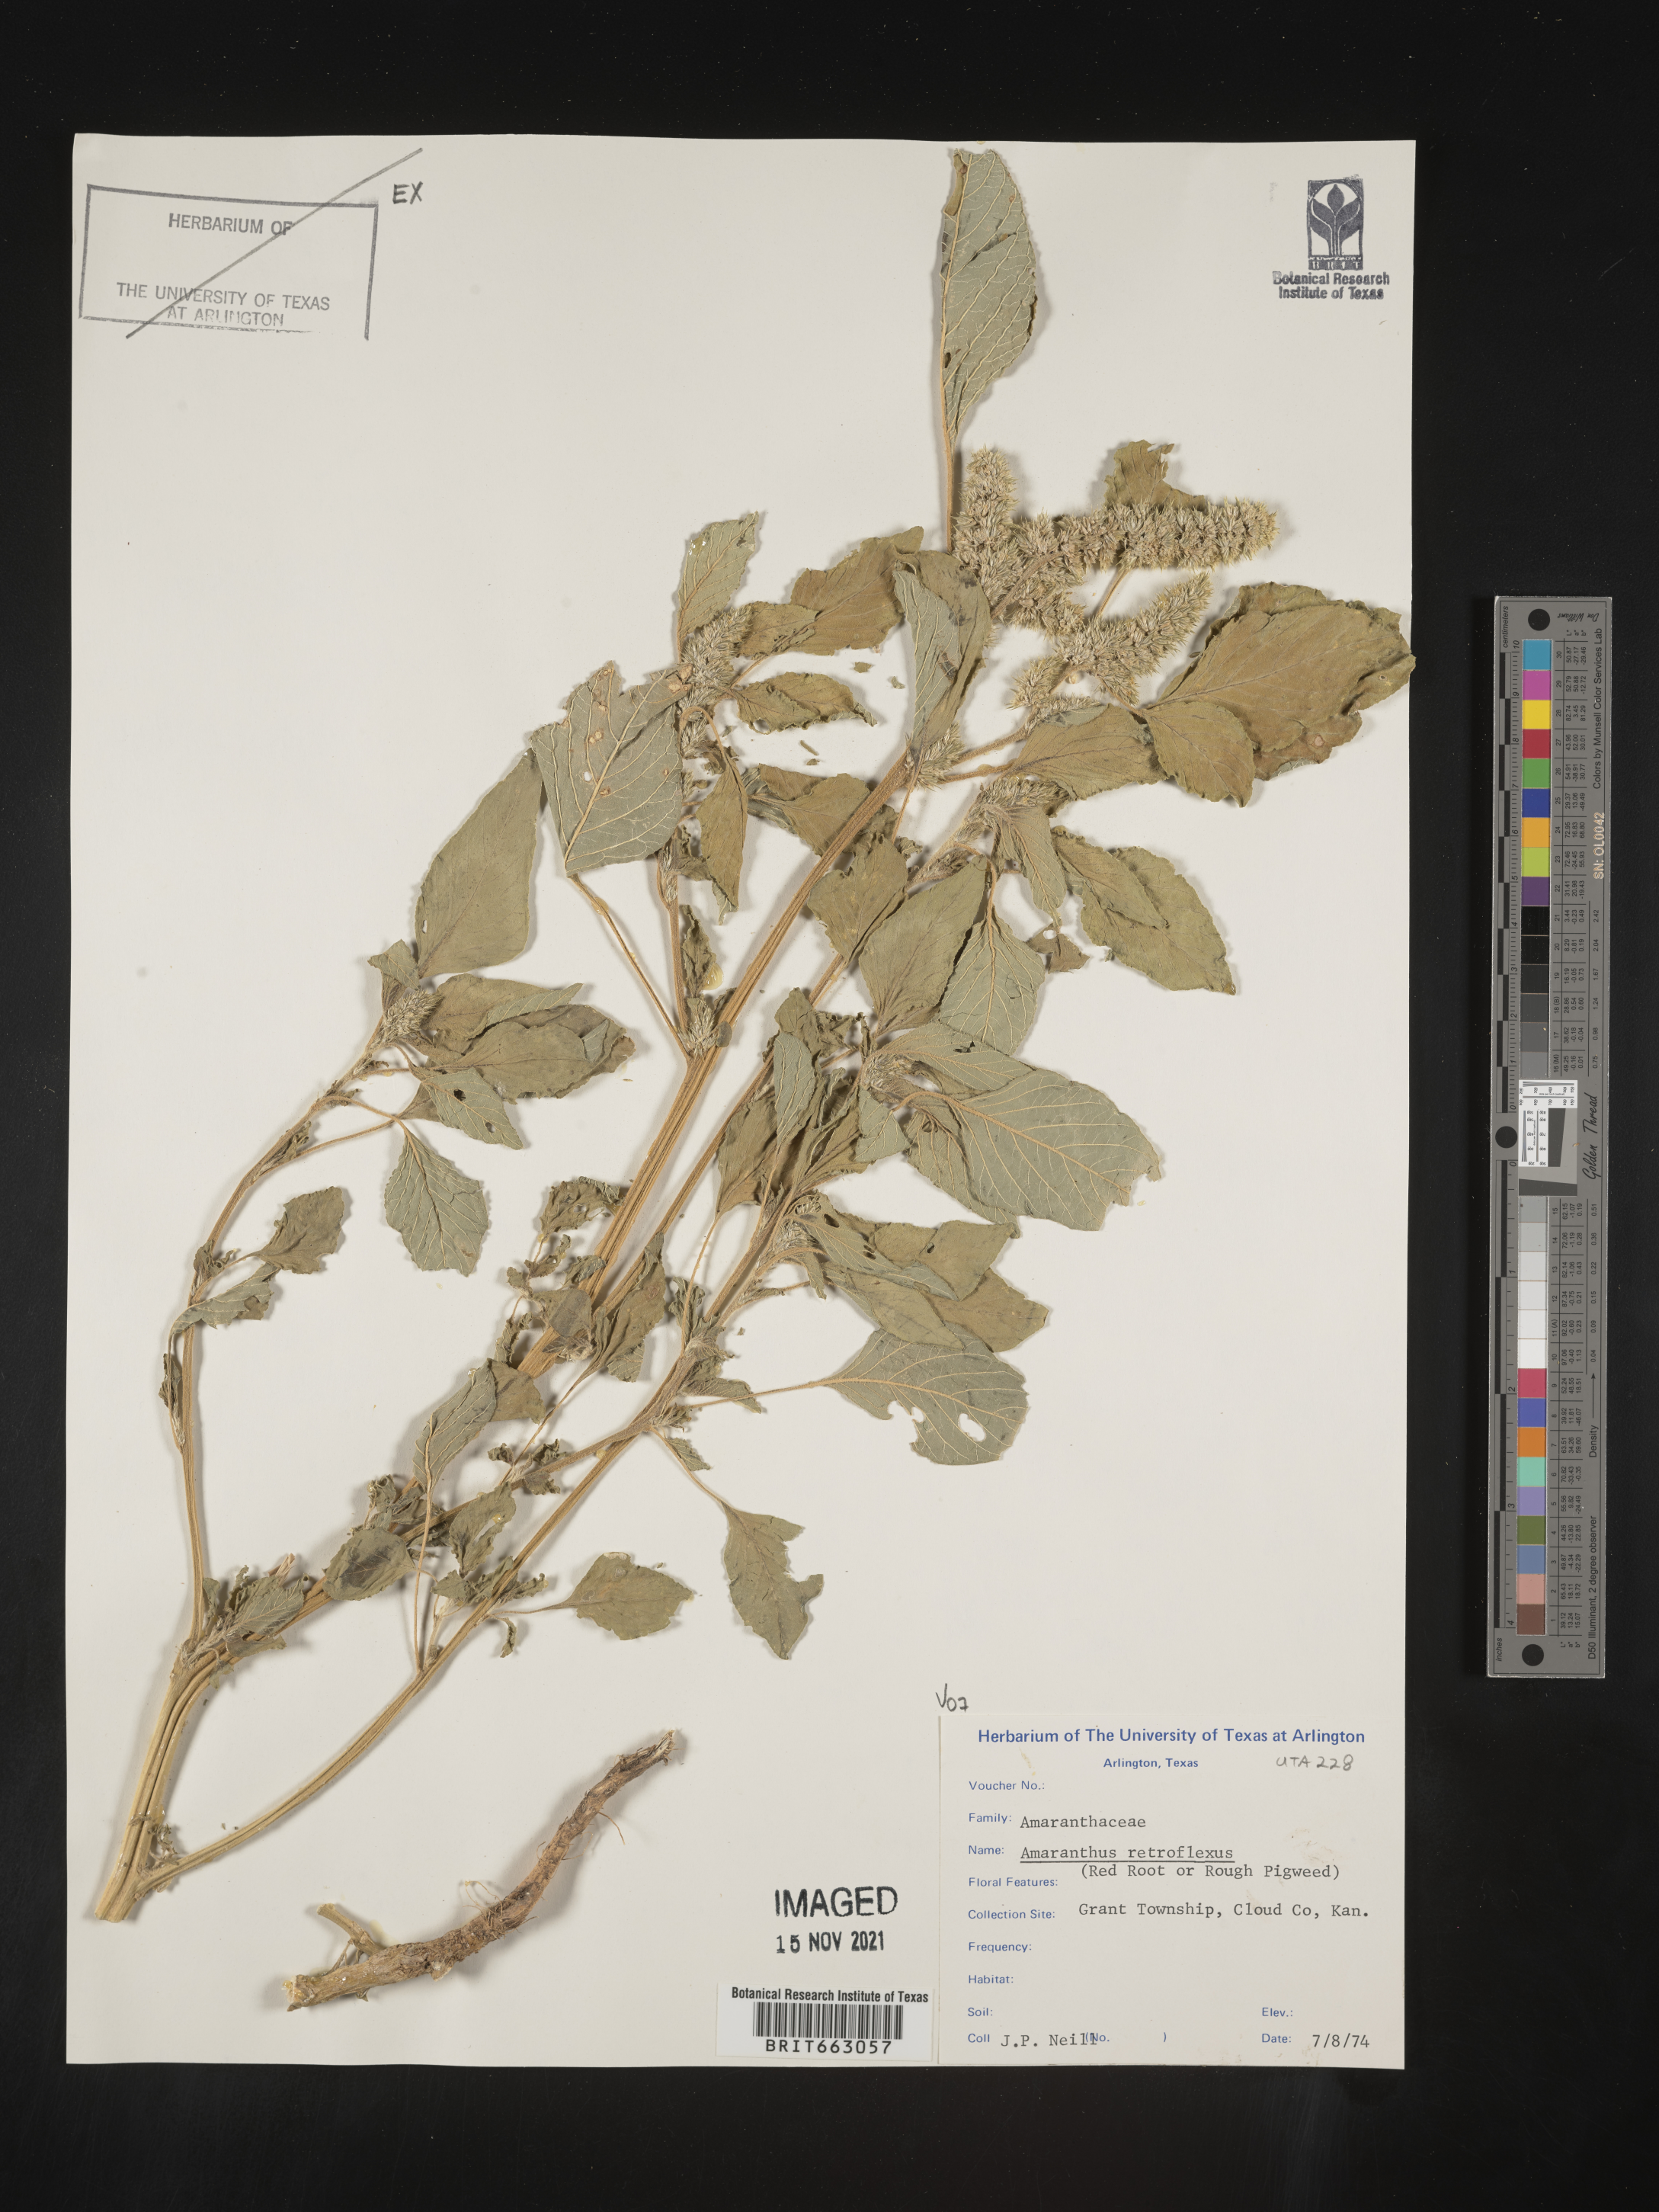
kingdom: Plantae
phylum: Tracheophyta
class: Magnoliopsida
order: Caryophyllales
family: Amaranthaceae
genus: Amaranthus
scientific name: Amaranthus retroflexus
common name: Redroot amaranth
